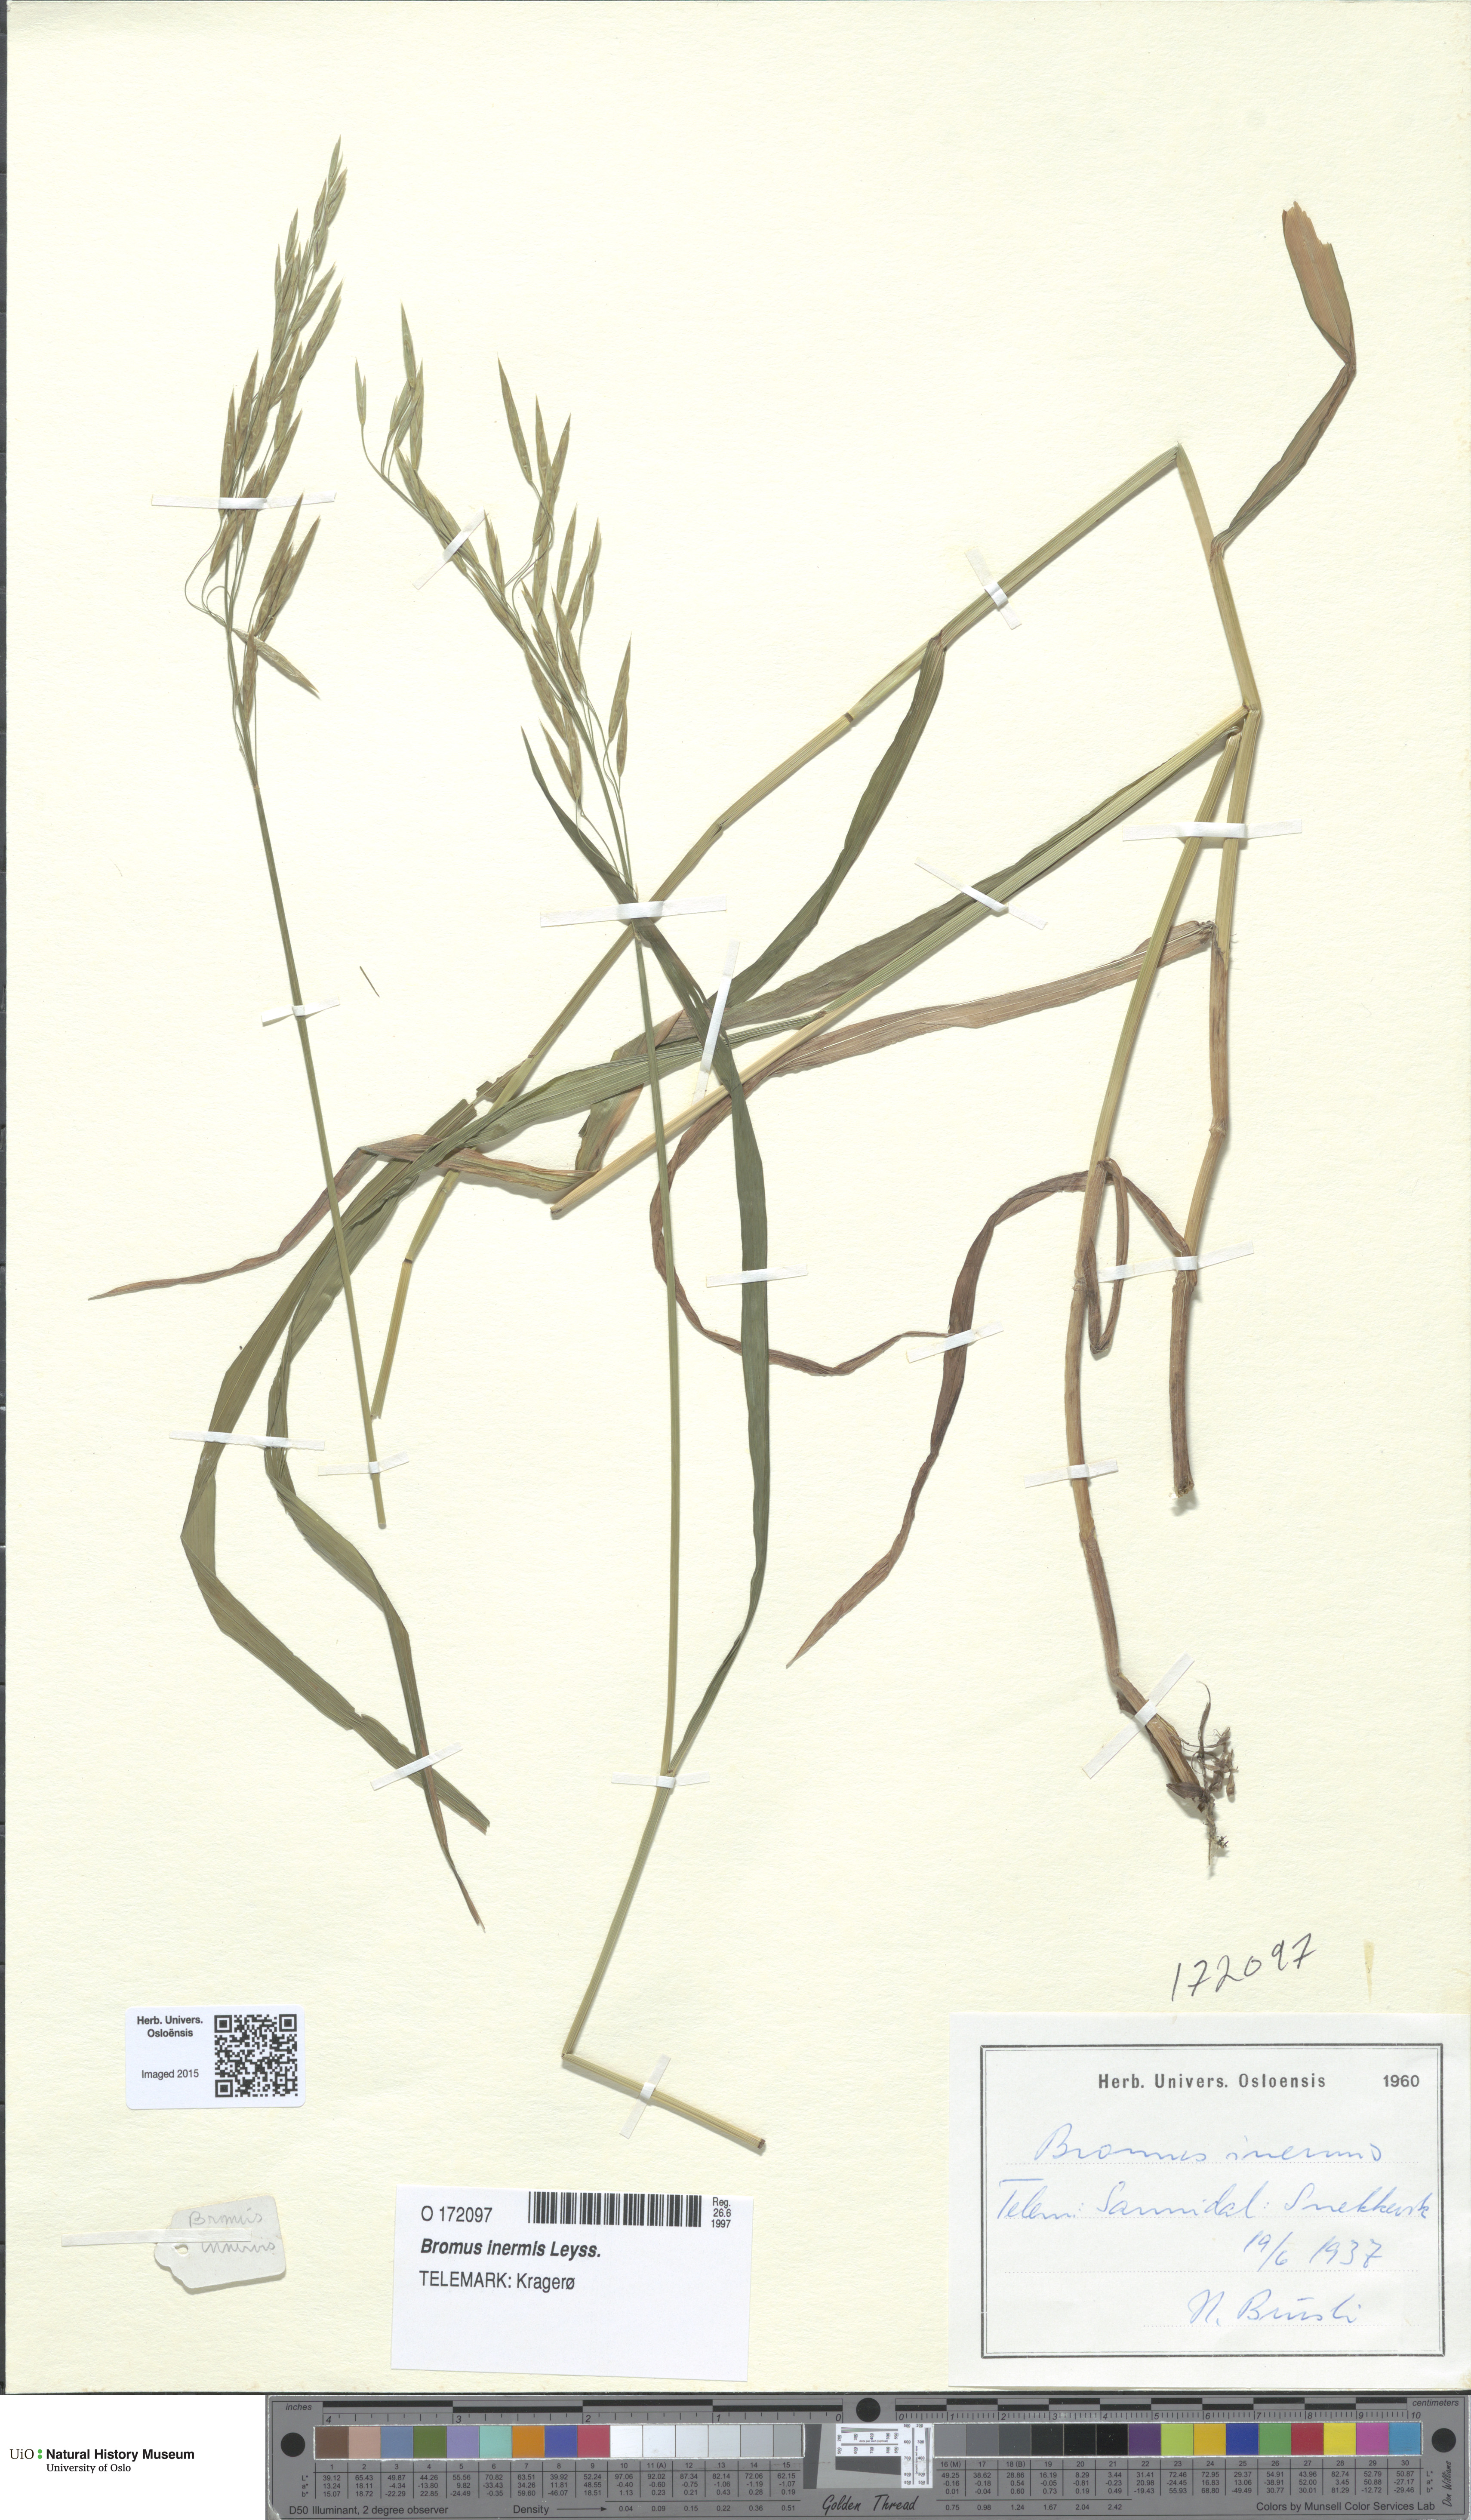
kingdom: Plantae
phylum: Tracheophyta
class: Liliopsida
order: Poales
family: Poaceae
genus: Bromus
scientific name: Bromus inermis
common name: Smooth brome
